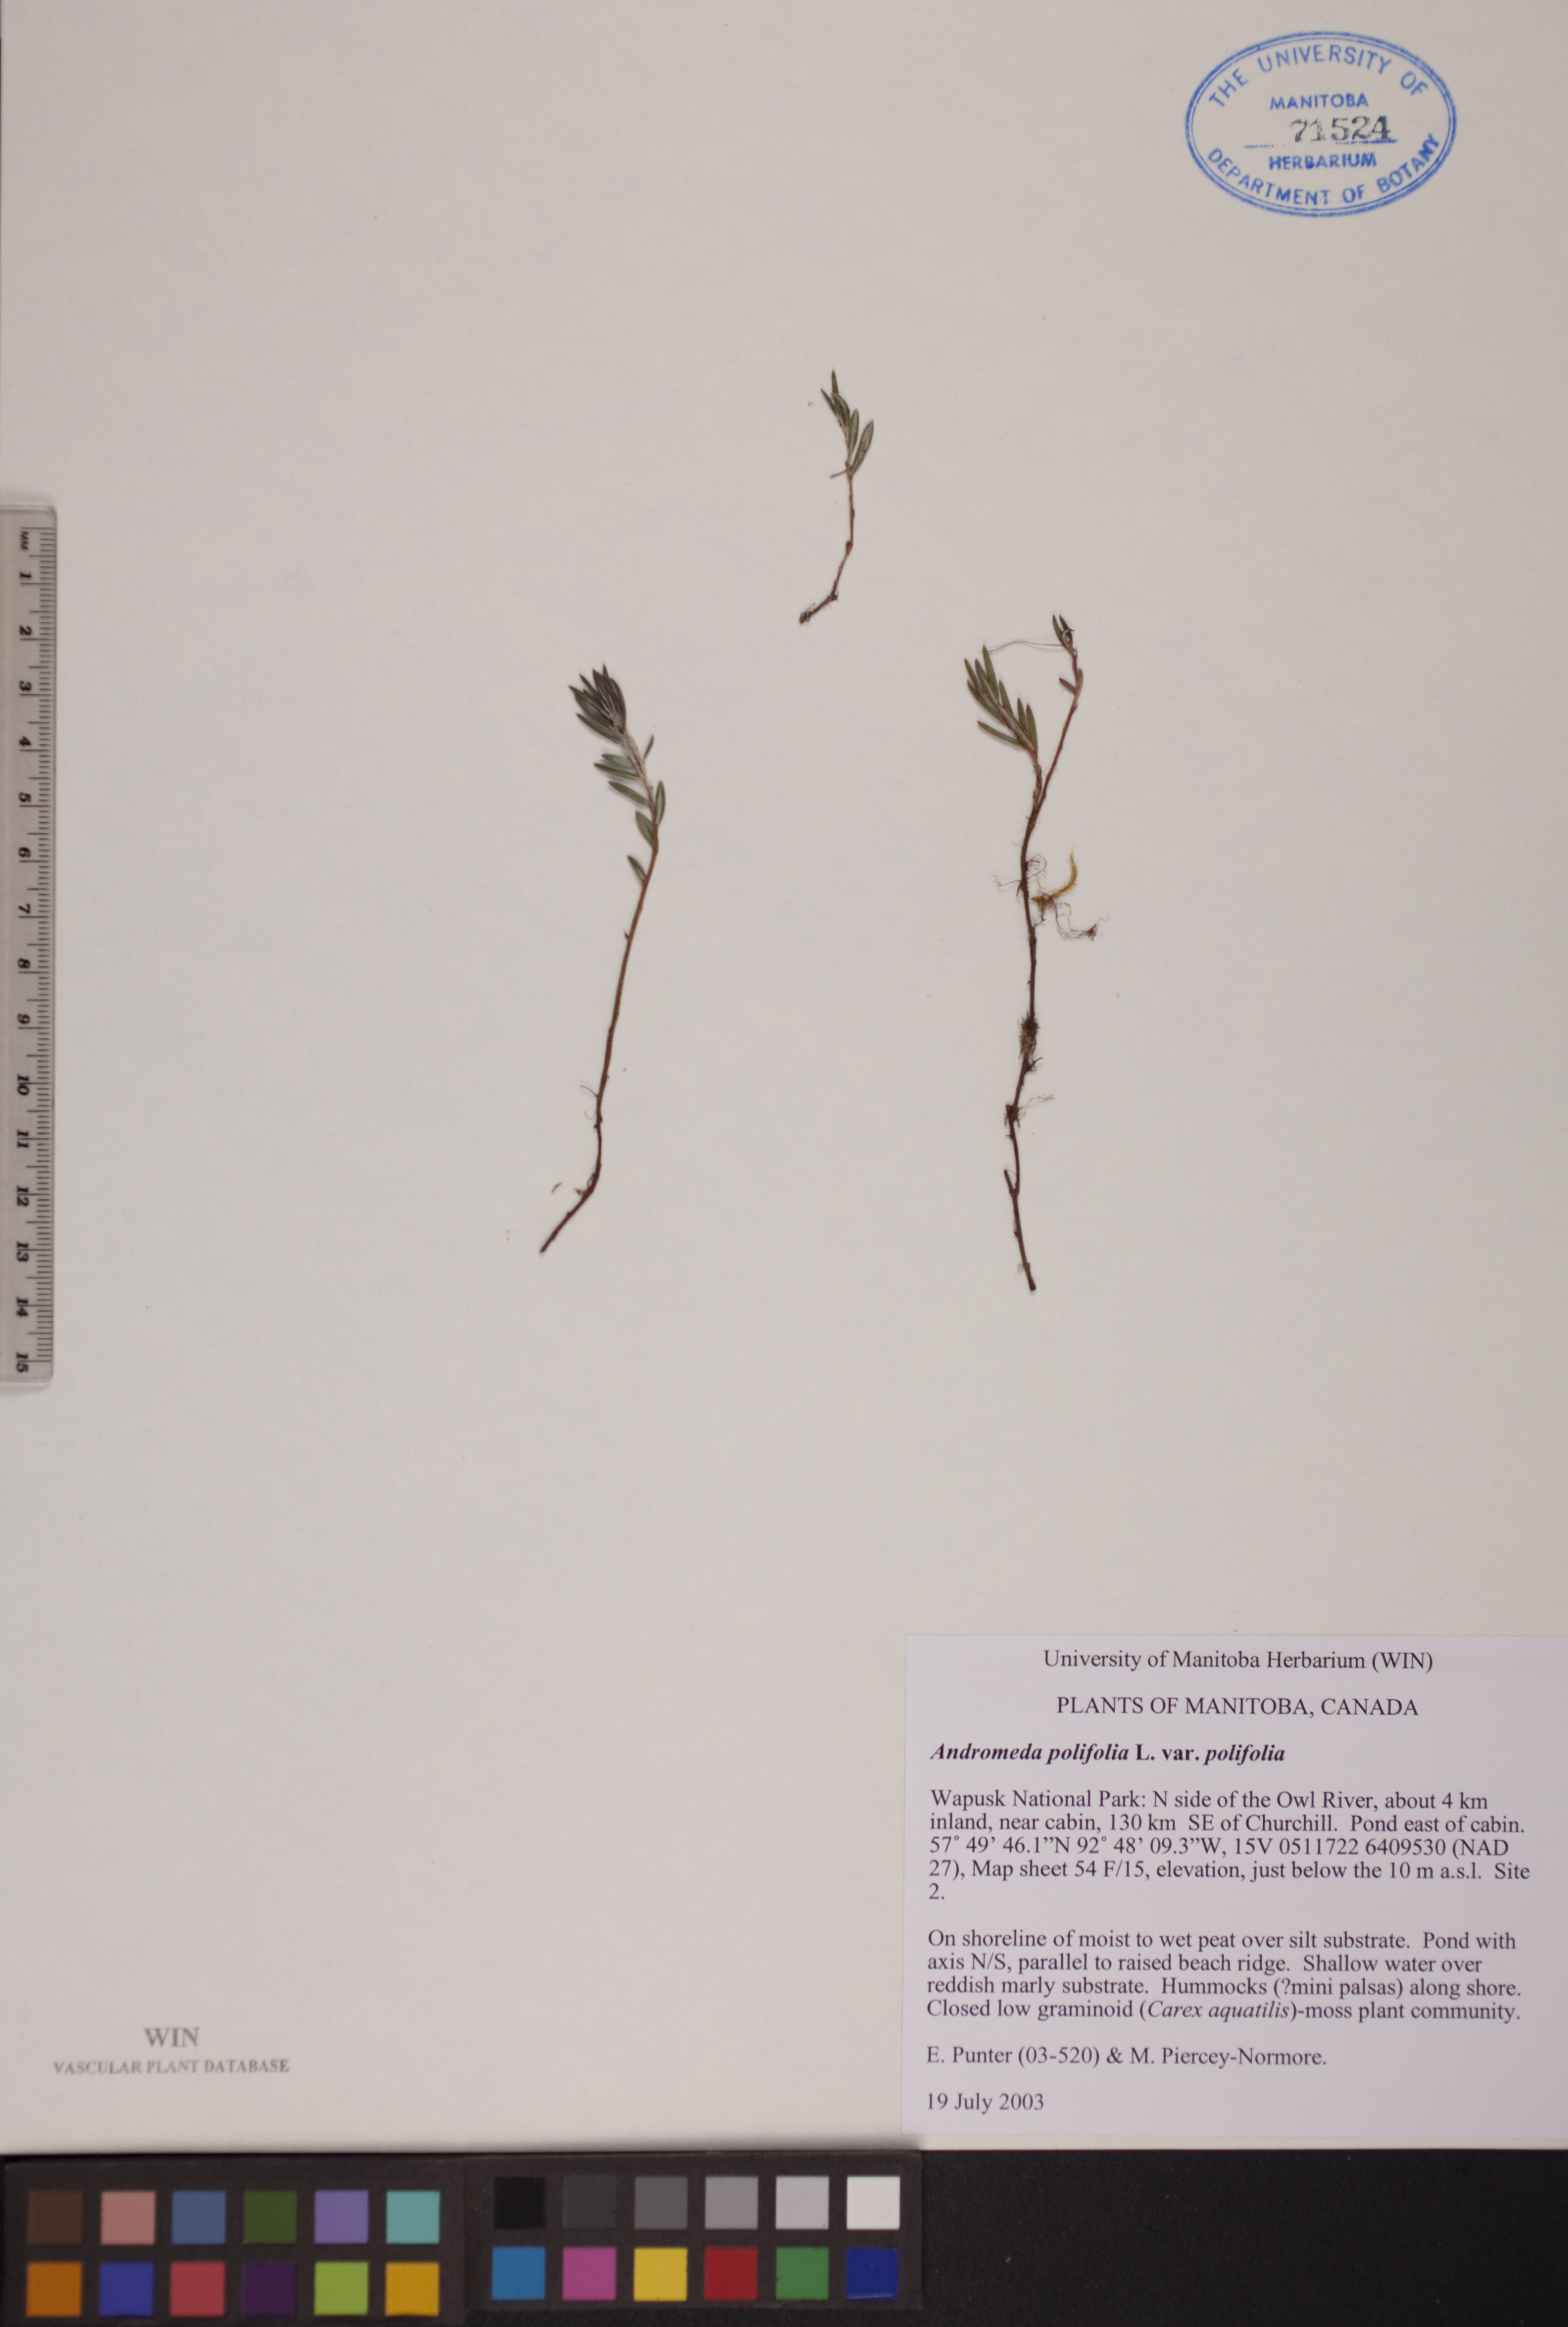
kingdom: Plantae
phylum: Tracheophyta
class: Magnoliopsida
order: Ericales
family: Ericaceae
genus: Andromeda
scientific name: Andromeda polifolia
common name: Bog-rosemary
